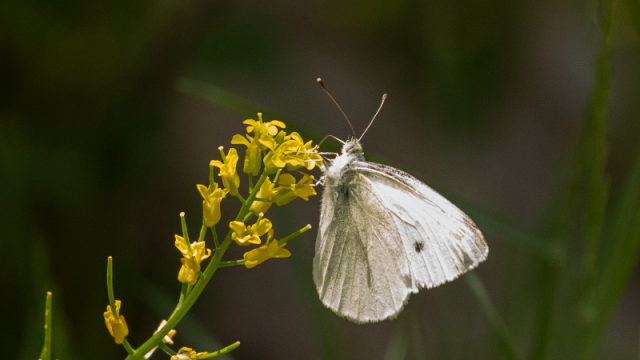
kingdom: Animalia
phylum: Arthropoda
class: Insecta
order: Lepidoptera
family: Pieridae
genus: Pieris
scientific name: Pieris rapae
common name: Cabbage White
